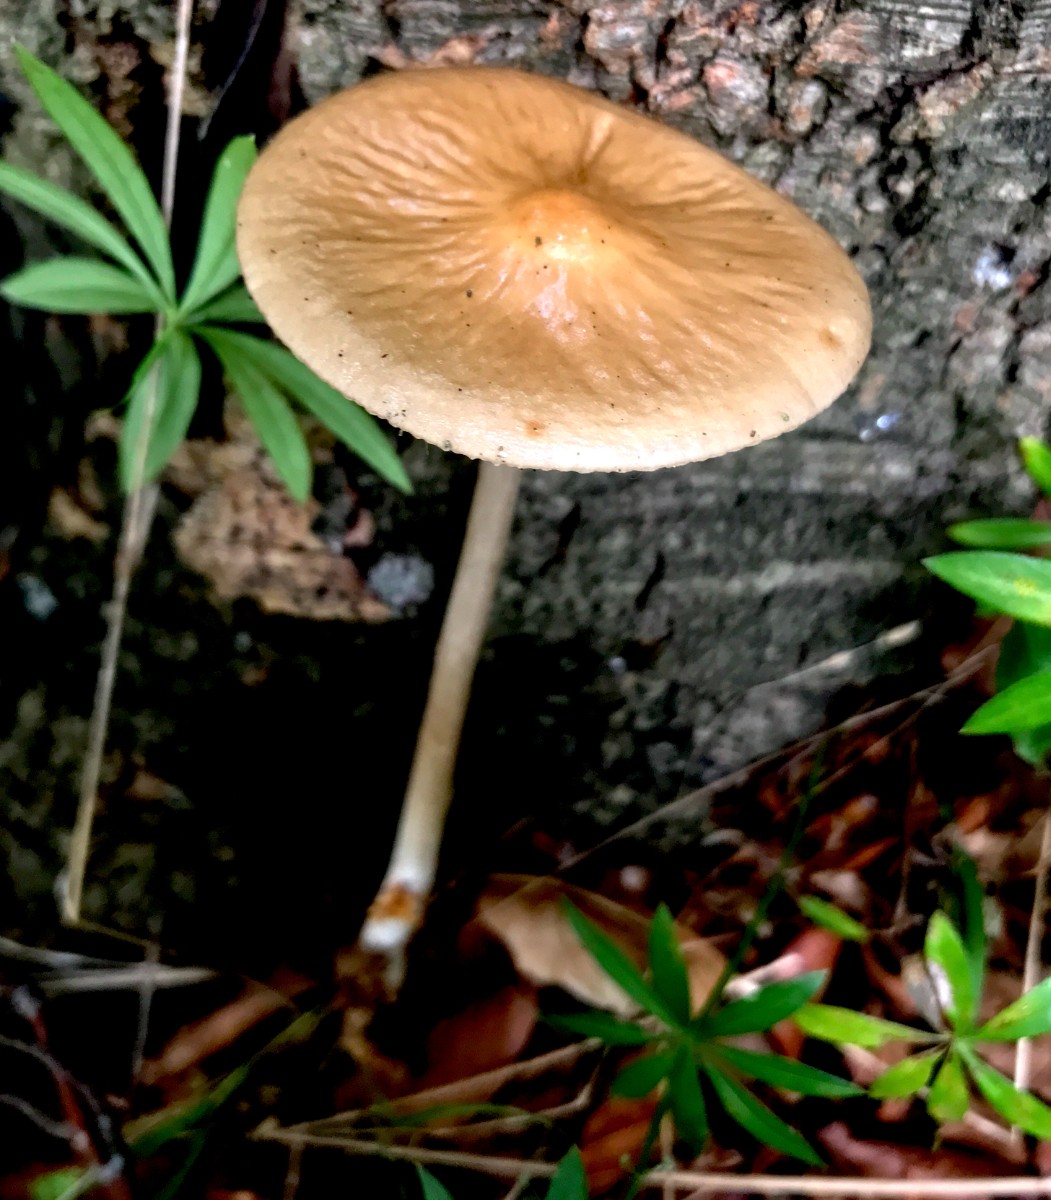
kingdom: Fungi
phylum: Basidiomycota
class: Agaricomycetes
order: Agaricales
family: Physalacriaceae
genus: Hymenopellis
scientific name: Hymenopellis radicata
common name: almindelig pælerodshat
